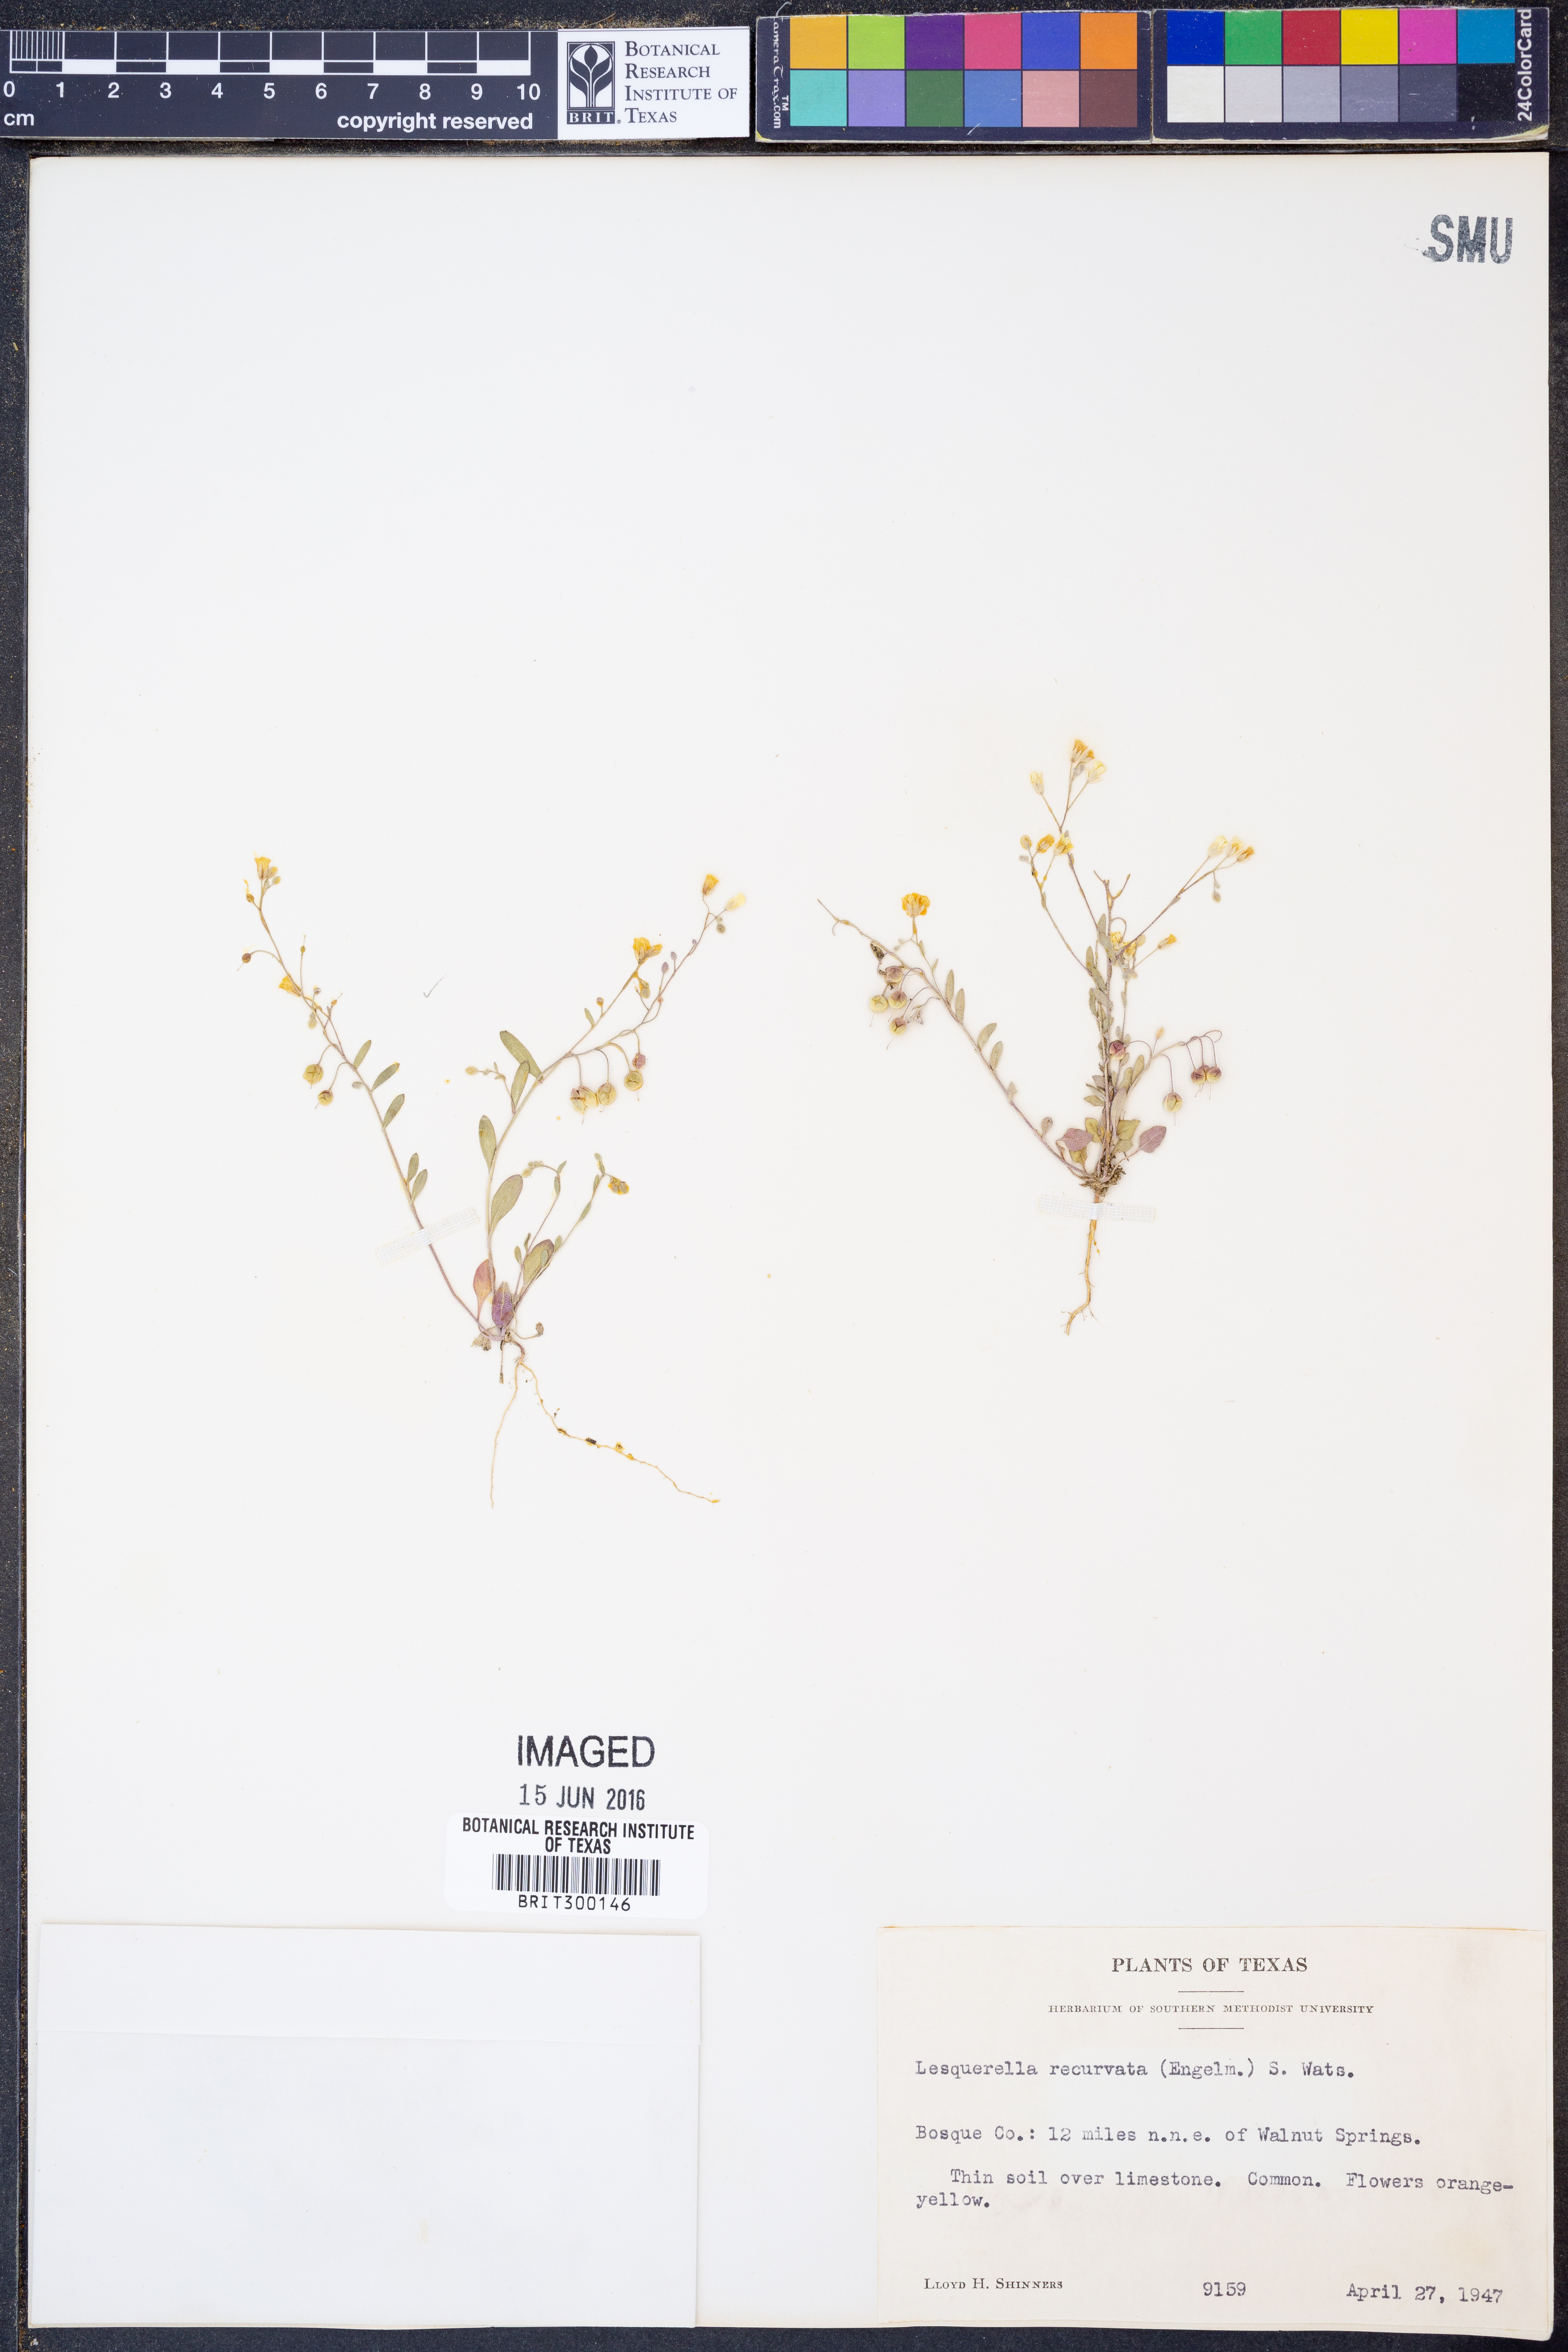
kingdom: Plantae
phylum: Tracheophyta
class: Magnoliopsida
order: Brassicales
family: Brassicaceae
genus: Physaria
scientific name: Physaria recurvata
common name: Gaslight bladderpod
